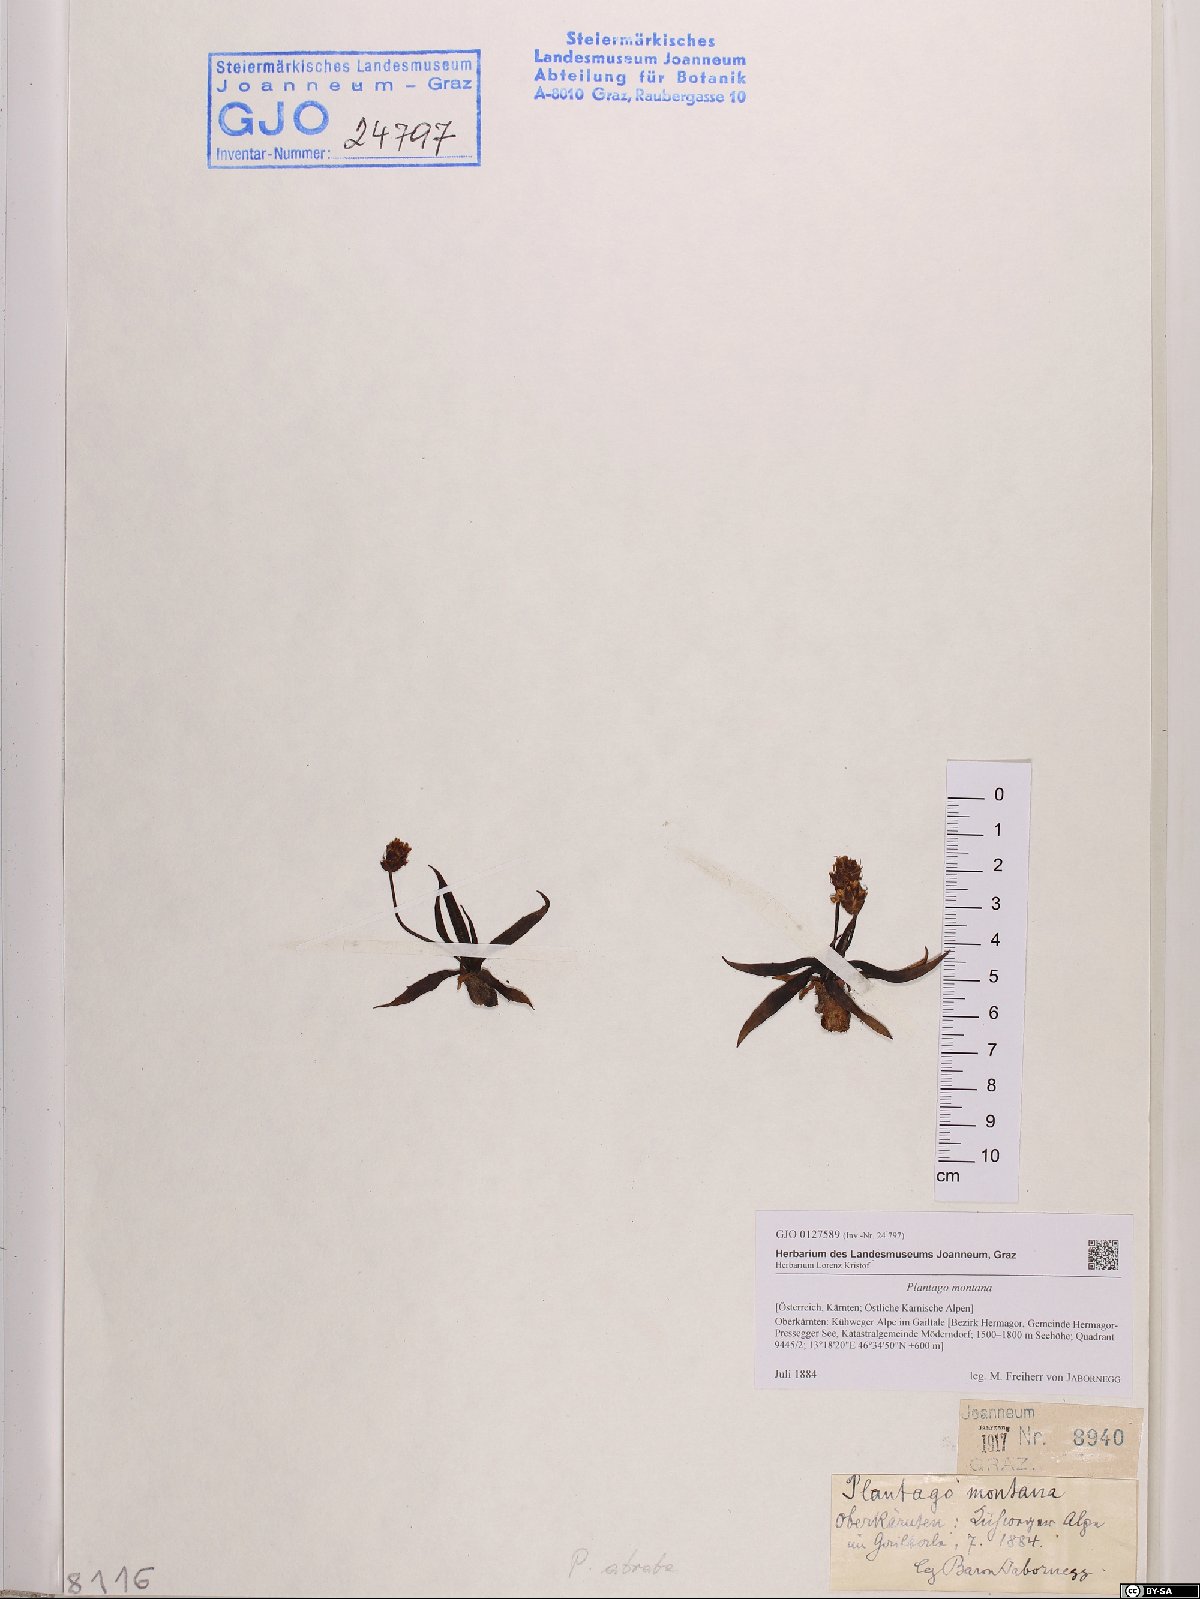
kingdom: Plantae
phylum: Tracheophyta
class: Magnoliopsida
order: Lamiales
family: Plantaginaceae
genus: Plantago
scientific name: Plantago atrata
